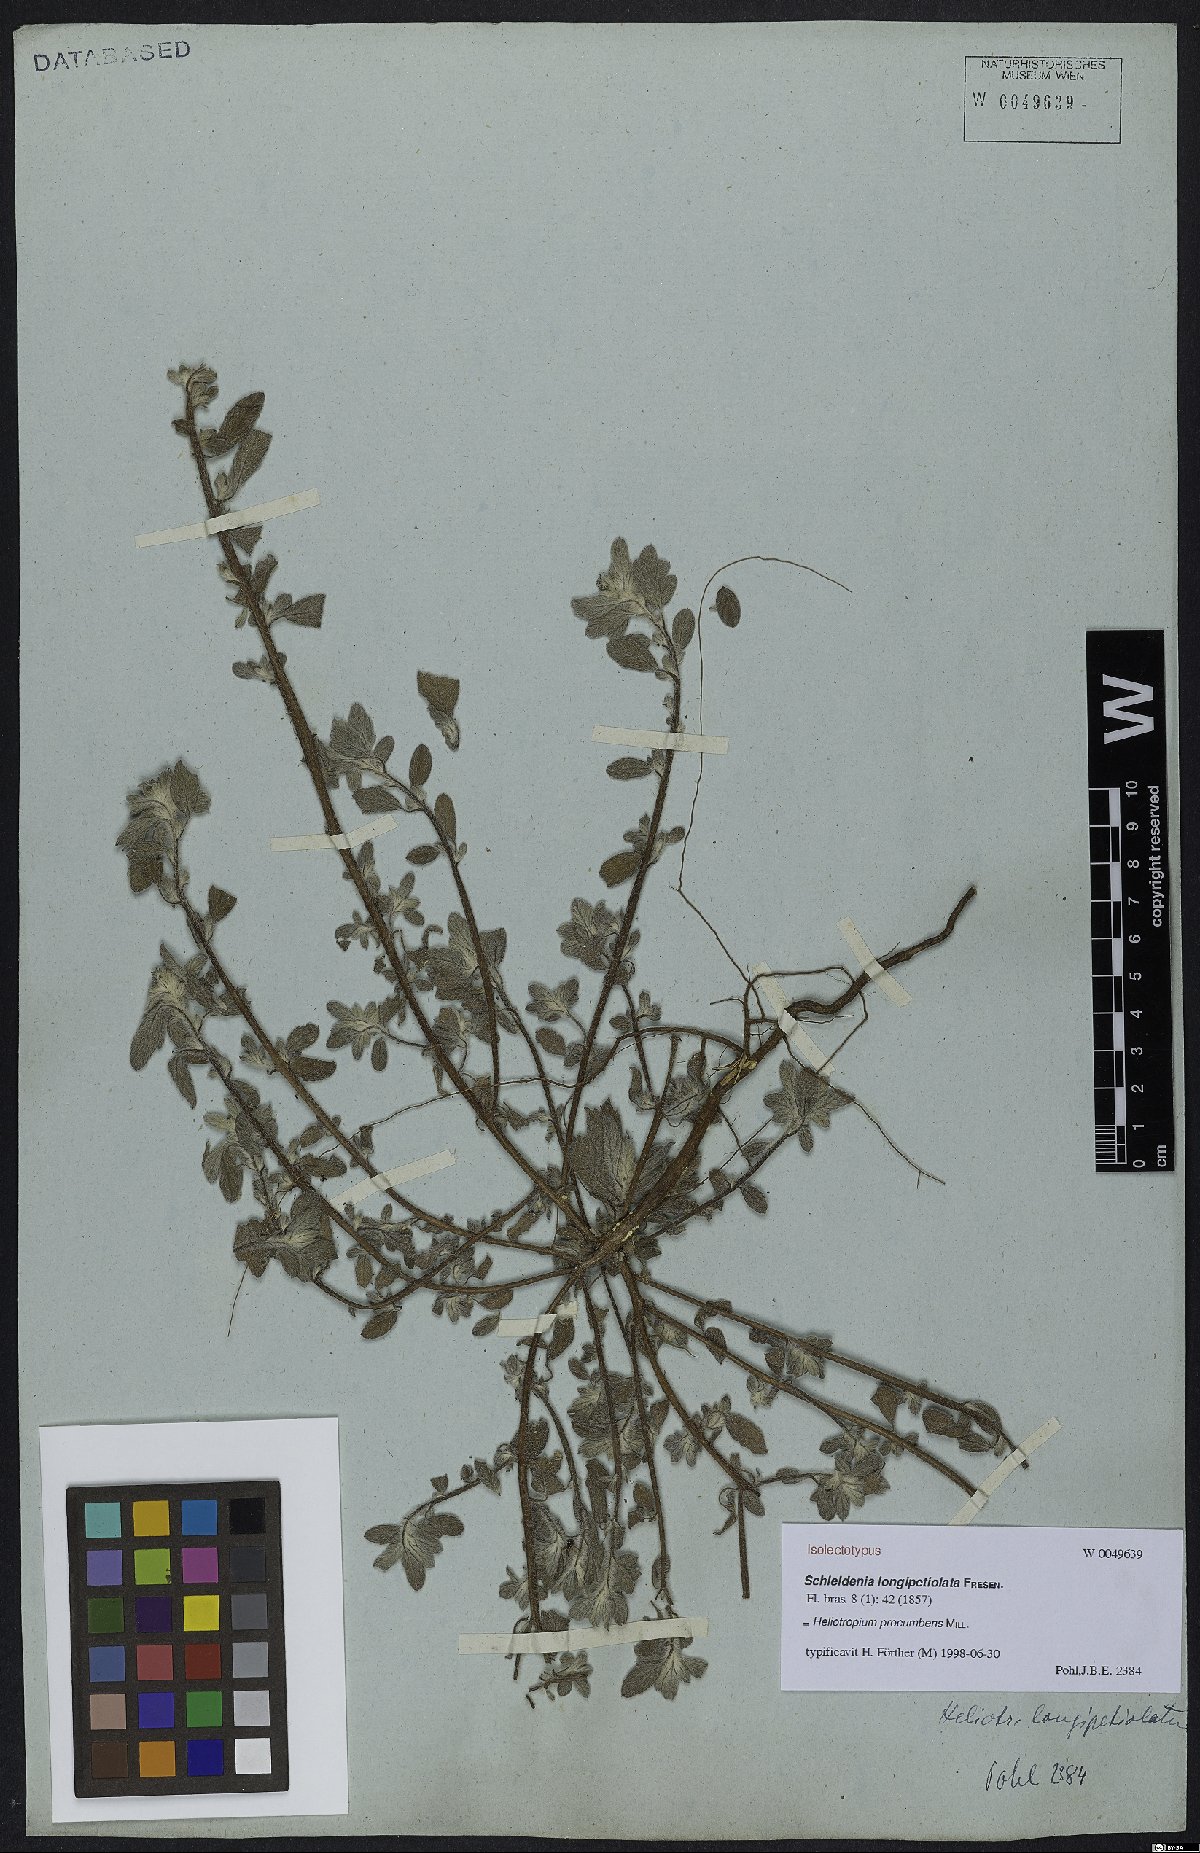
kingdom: Plantae
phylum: Tracheophyta
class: Magnoliopsida
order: Boraginales
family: Heliotropiaceae
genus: Euploca
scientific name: Euploca procumbens
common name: Fourspike heliotrope
